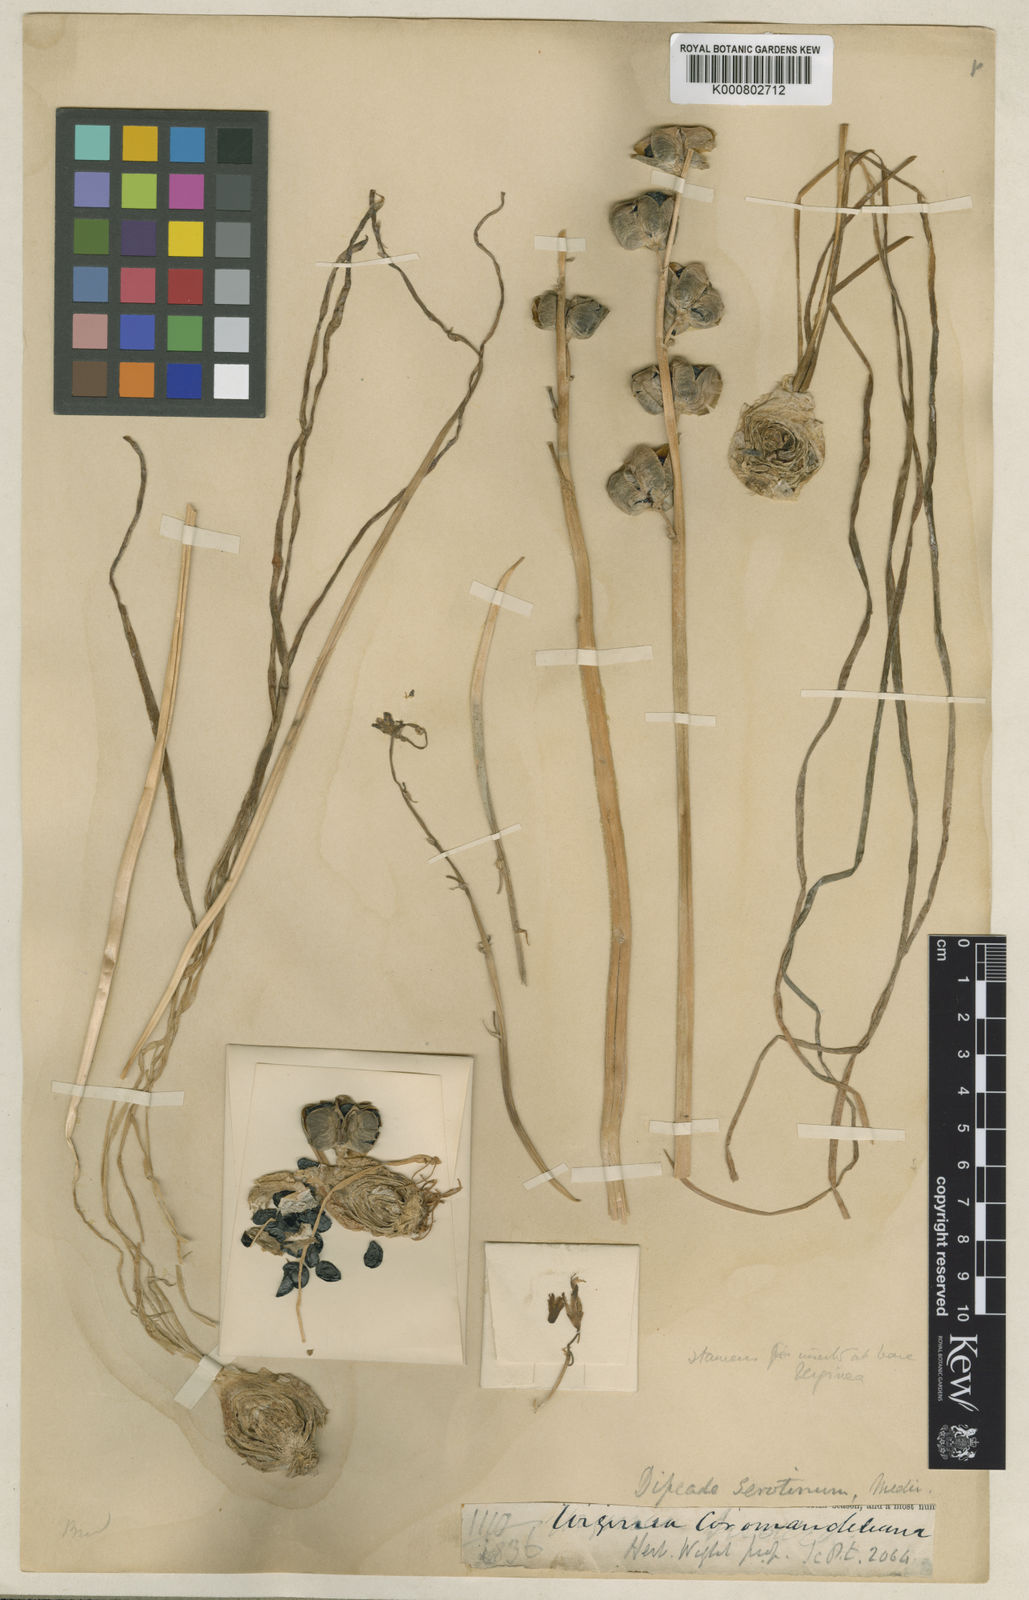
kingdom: Plantae
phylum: Tracheophyta
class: Liliopsida
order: Asparagales
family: Asparagaceae
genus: Dipcadi
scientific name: Dipcadi serotinum
